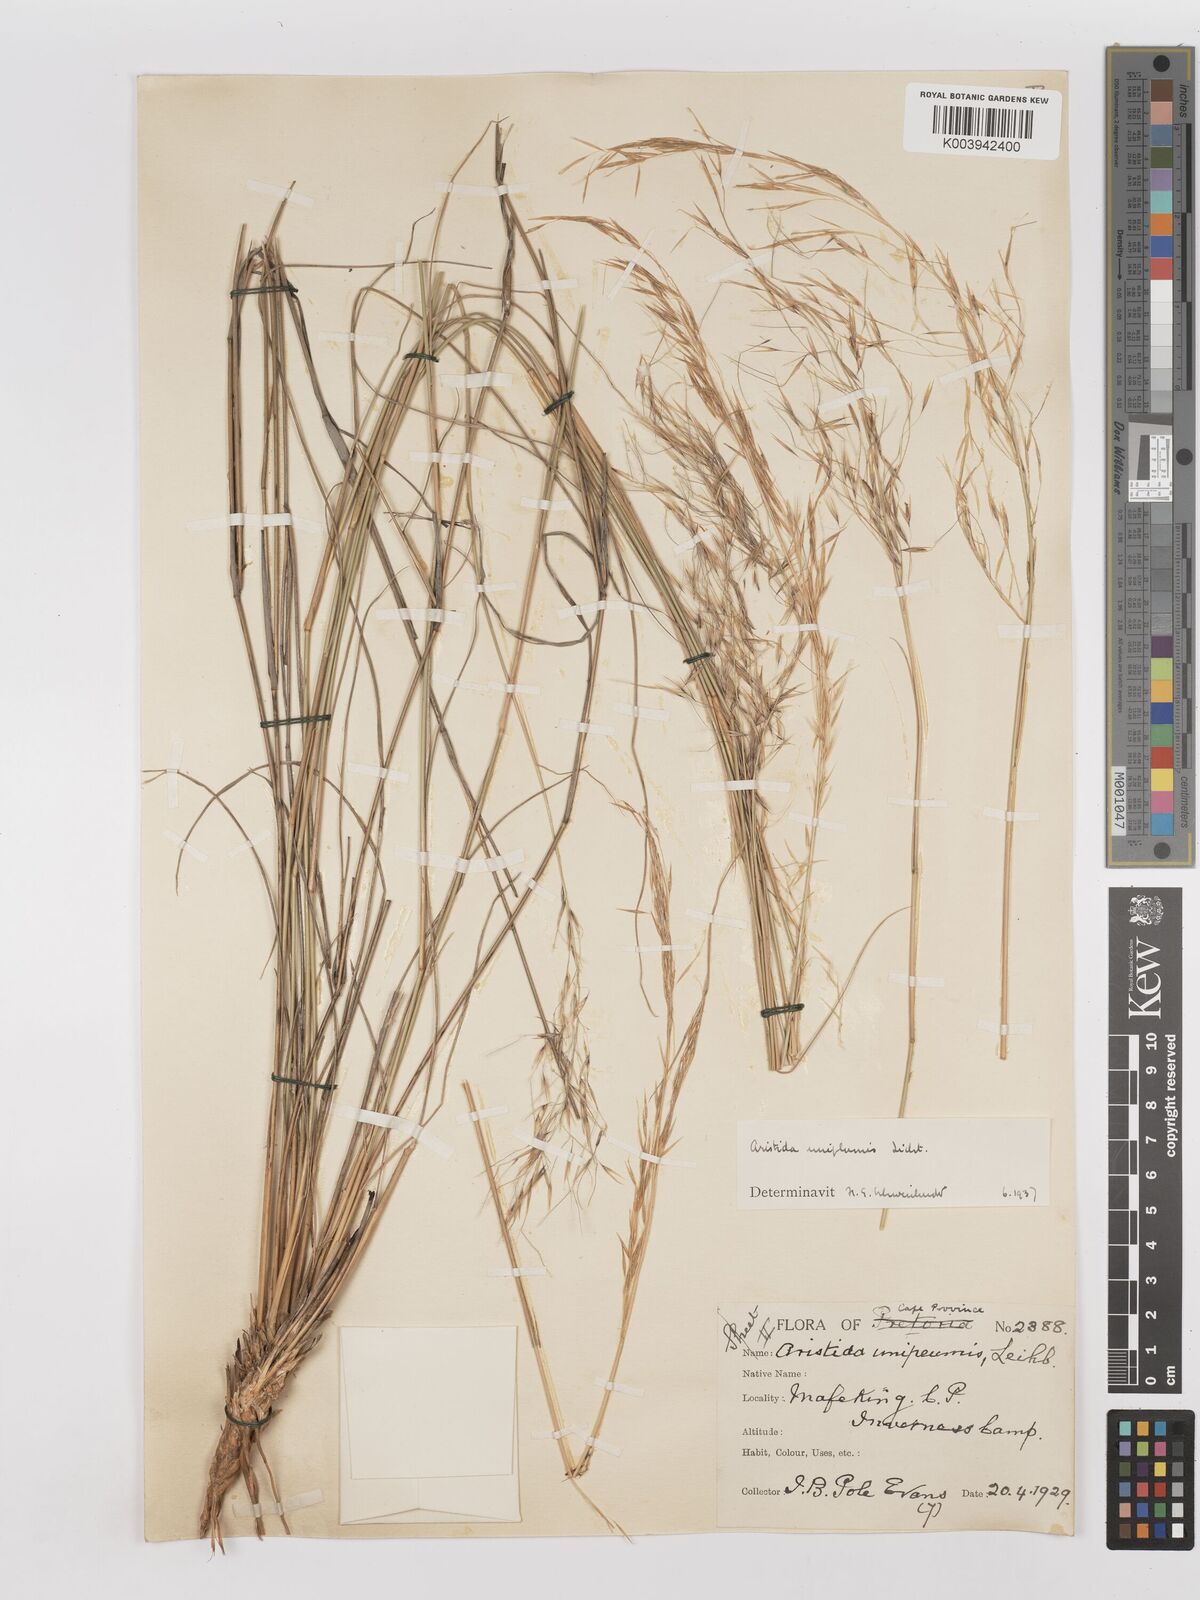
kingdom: Plantae
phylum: Tracheophyta
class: Liliopsida
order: Poales
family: Poaceae
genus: Stipagrostis
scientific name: Stipagrostis uniplumis
